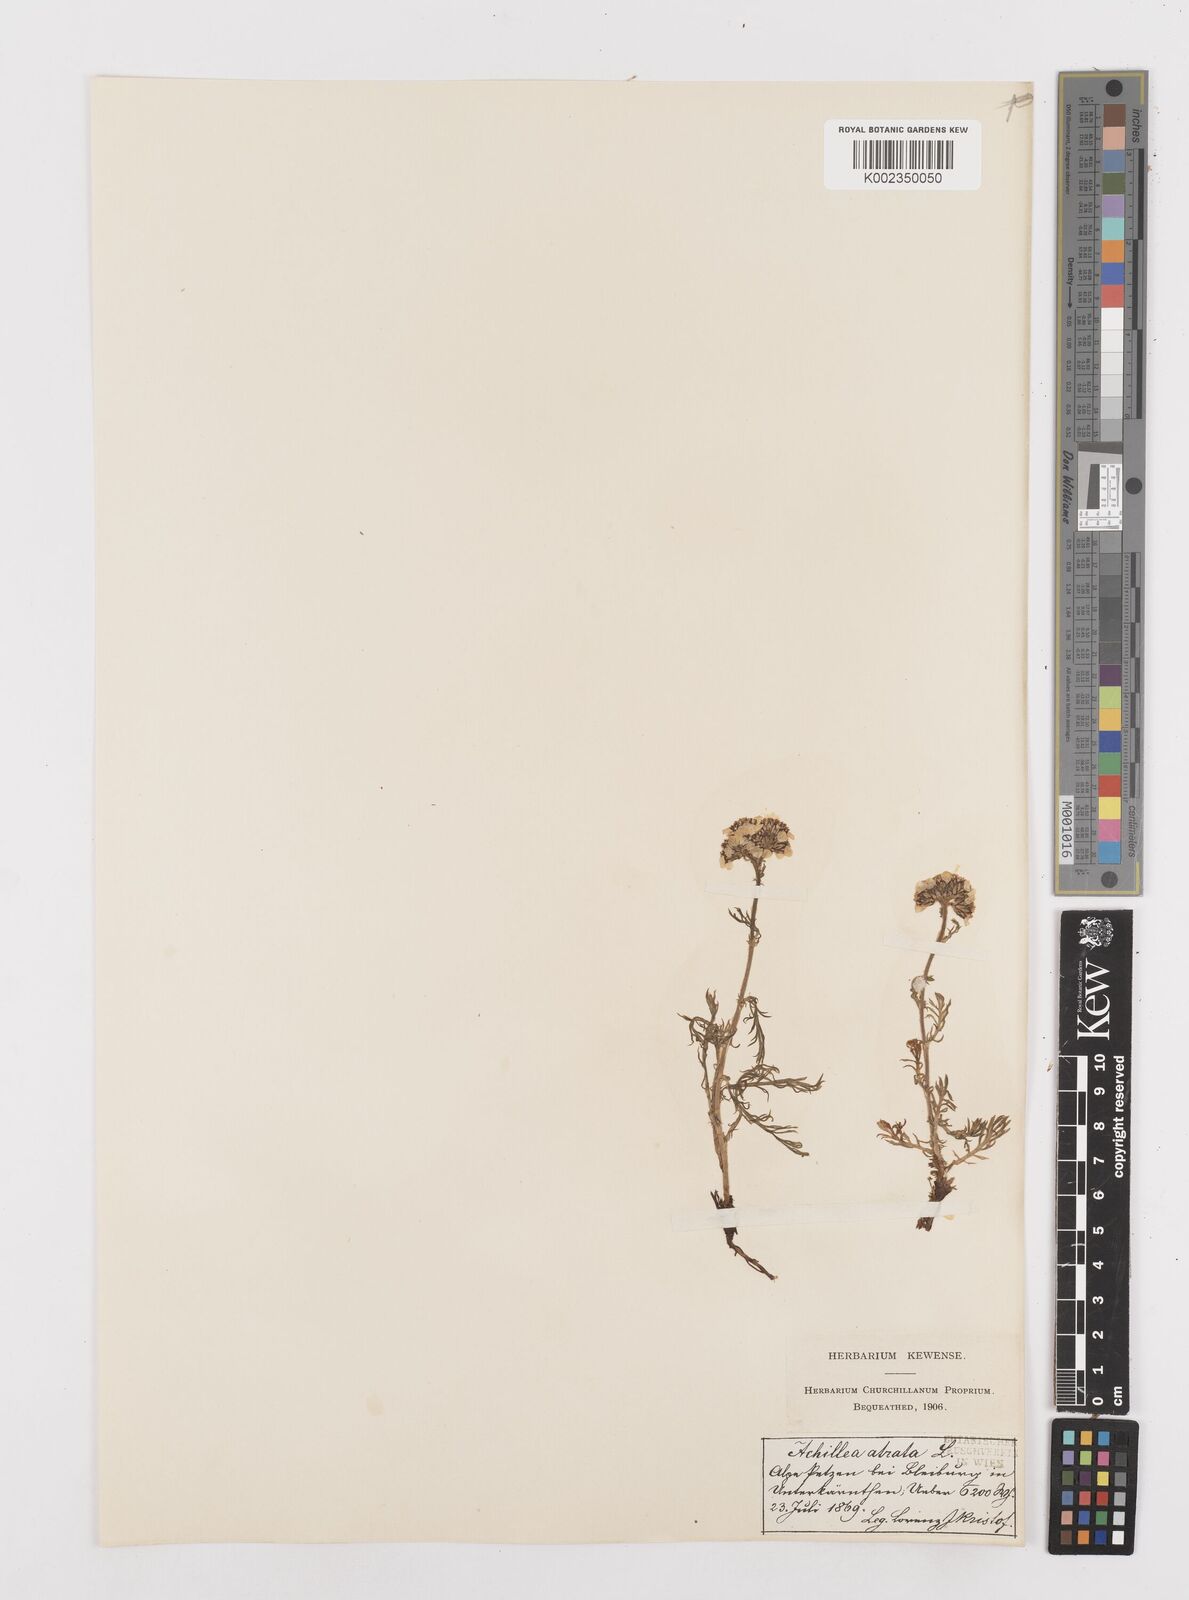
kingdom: Plantae
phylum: Tracheophyta
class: Magnoliopsida
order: Asterales
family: Asteraceae
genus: Achillea
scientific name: Achillea atrata
